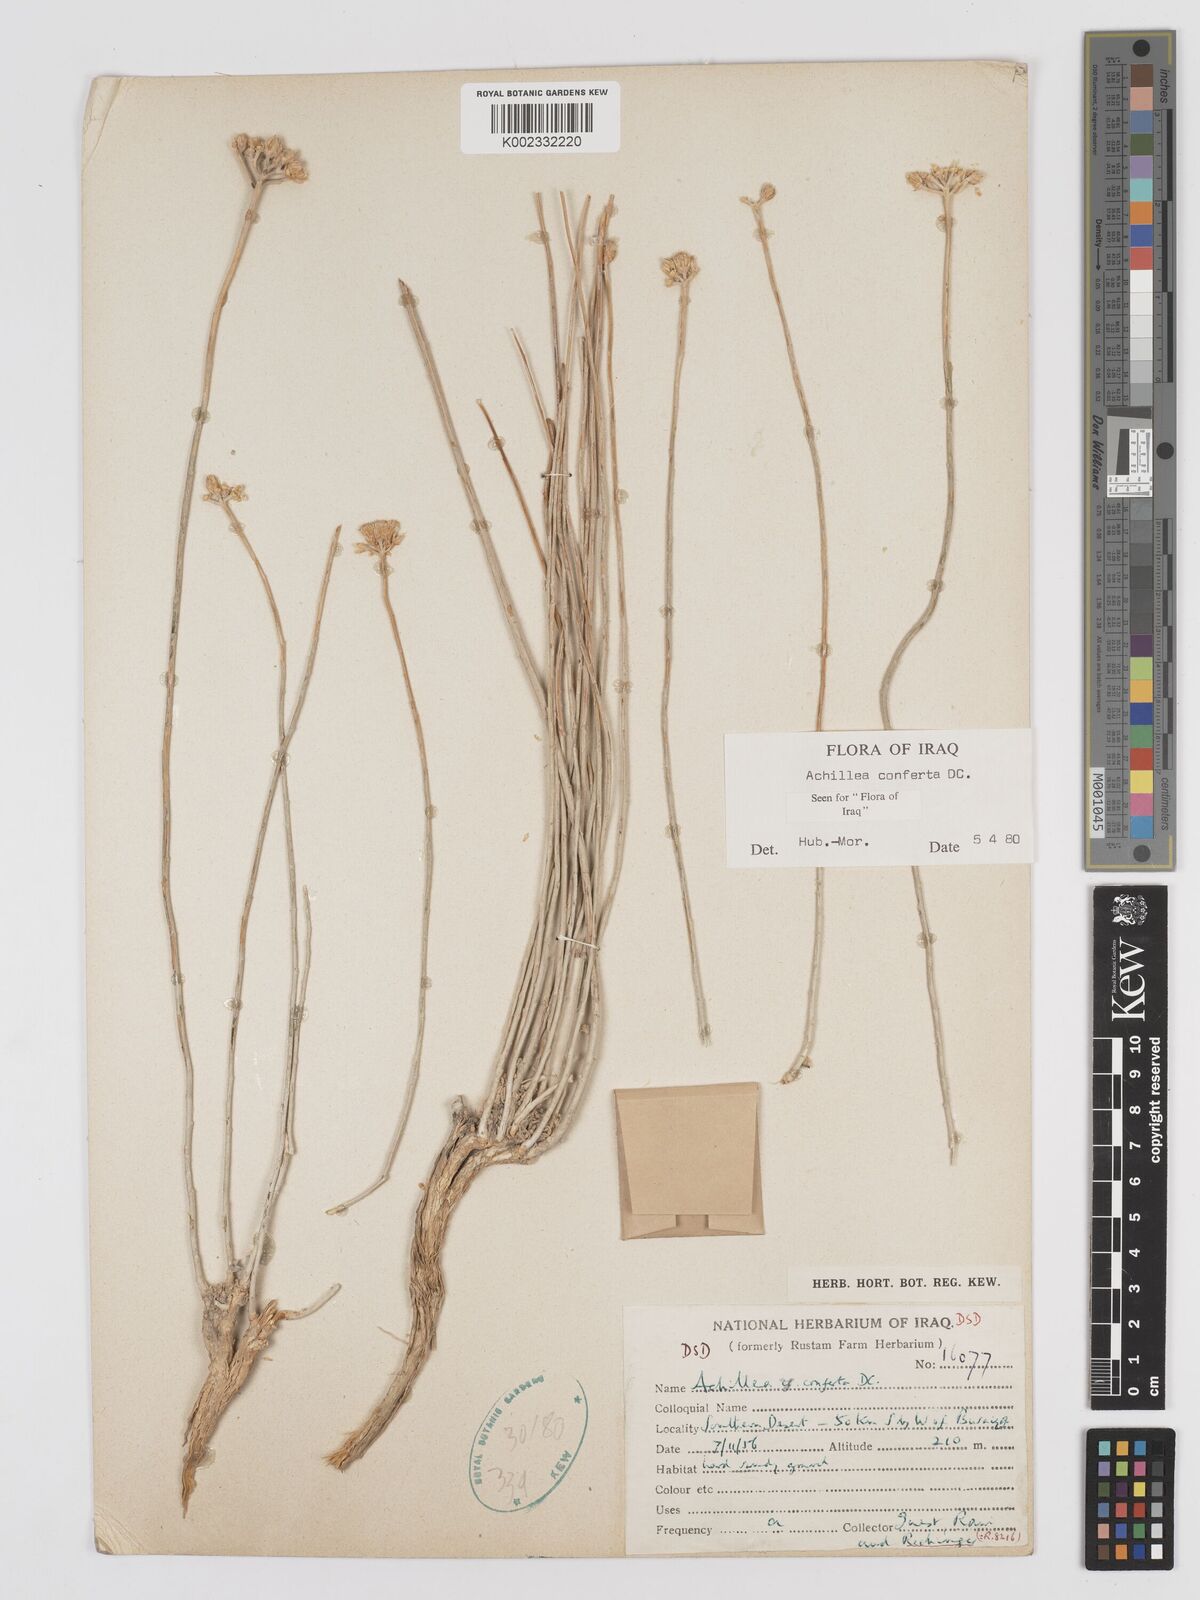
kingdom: Plantae
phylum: Tracheophyta
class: Magnoliopsida
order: Asterales
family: Asteraceae
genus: Achillea
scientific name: Achillea conferta
